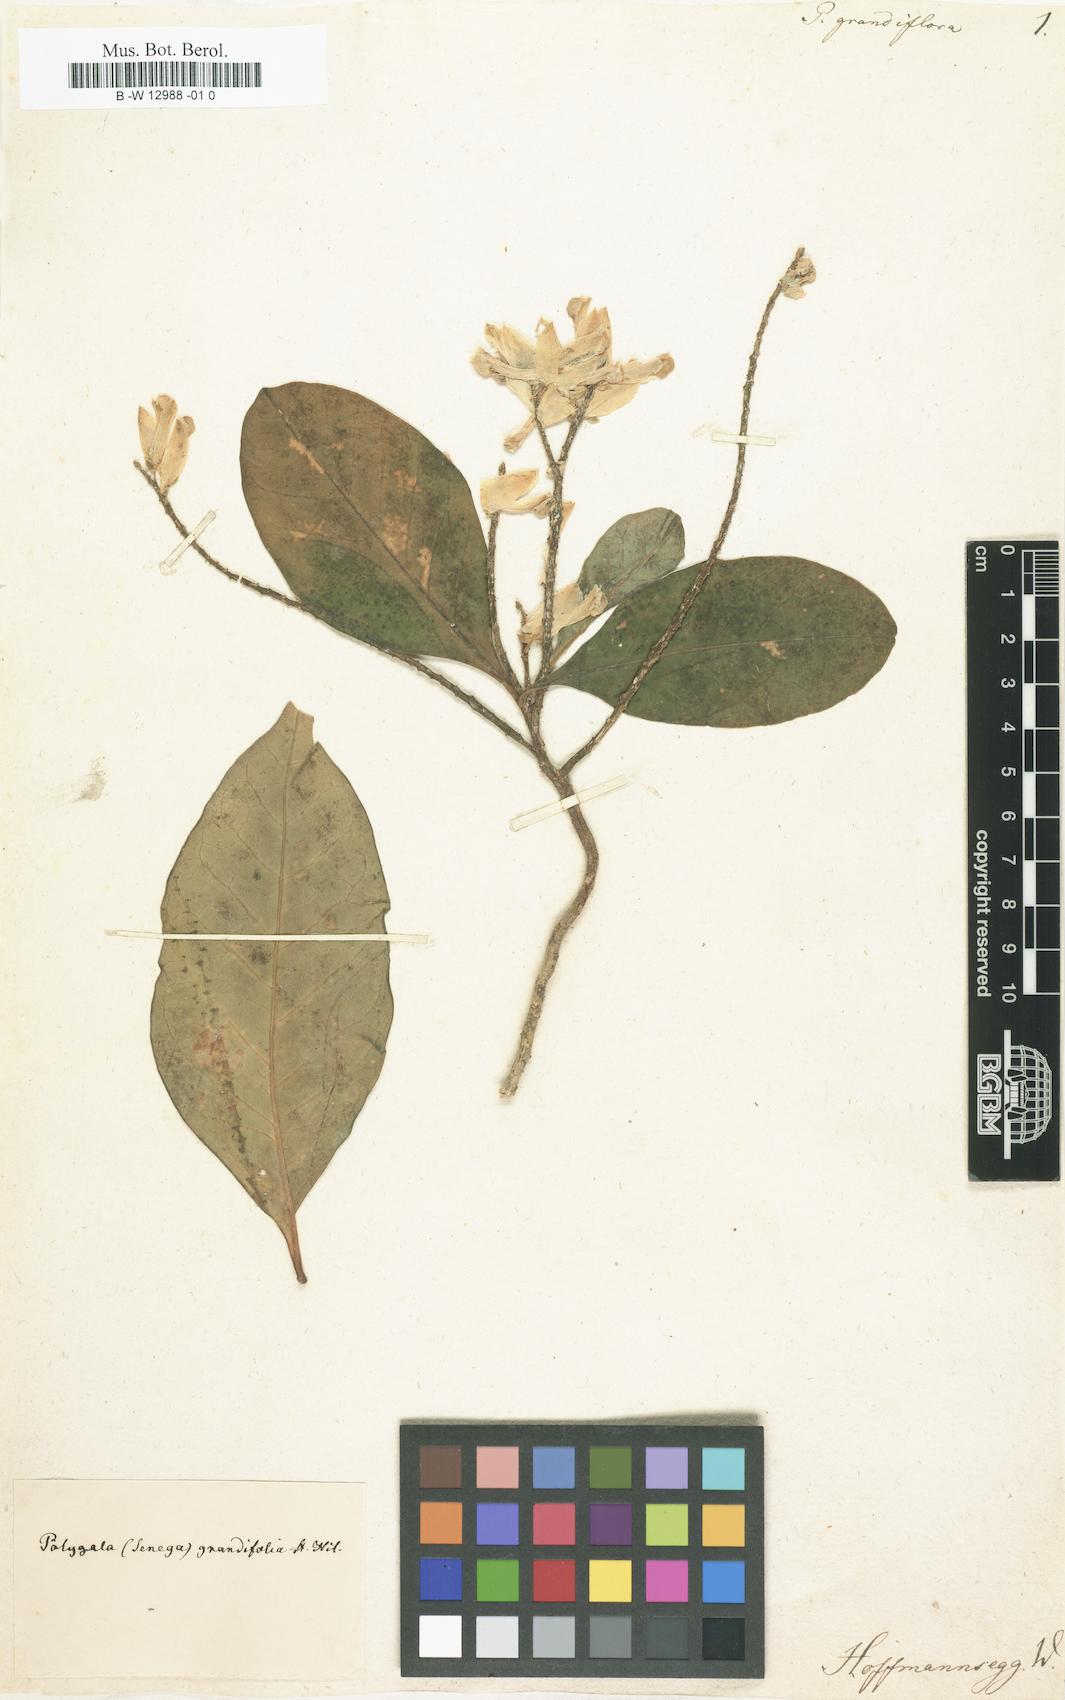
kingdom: Plantae
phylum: Tracheophyta
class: Magnoliopsida
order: Fabales
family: Polygalaceae
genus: Polygala
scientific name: Polygala grandiflora
